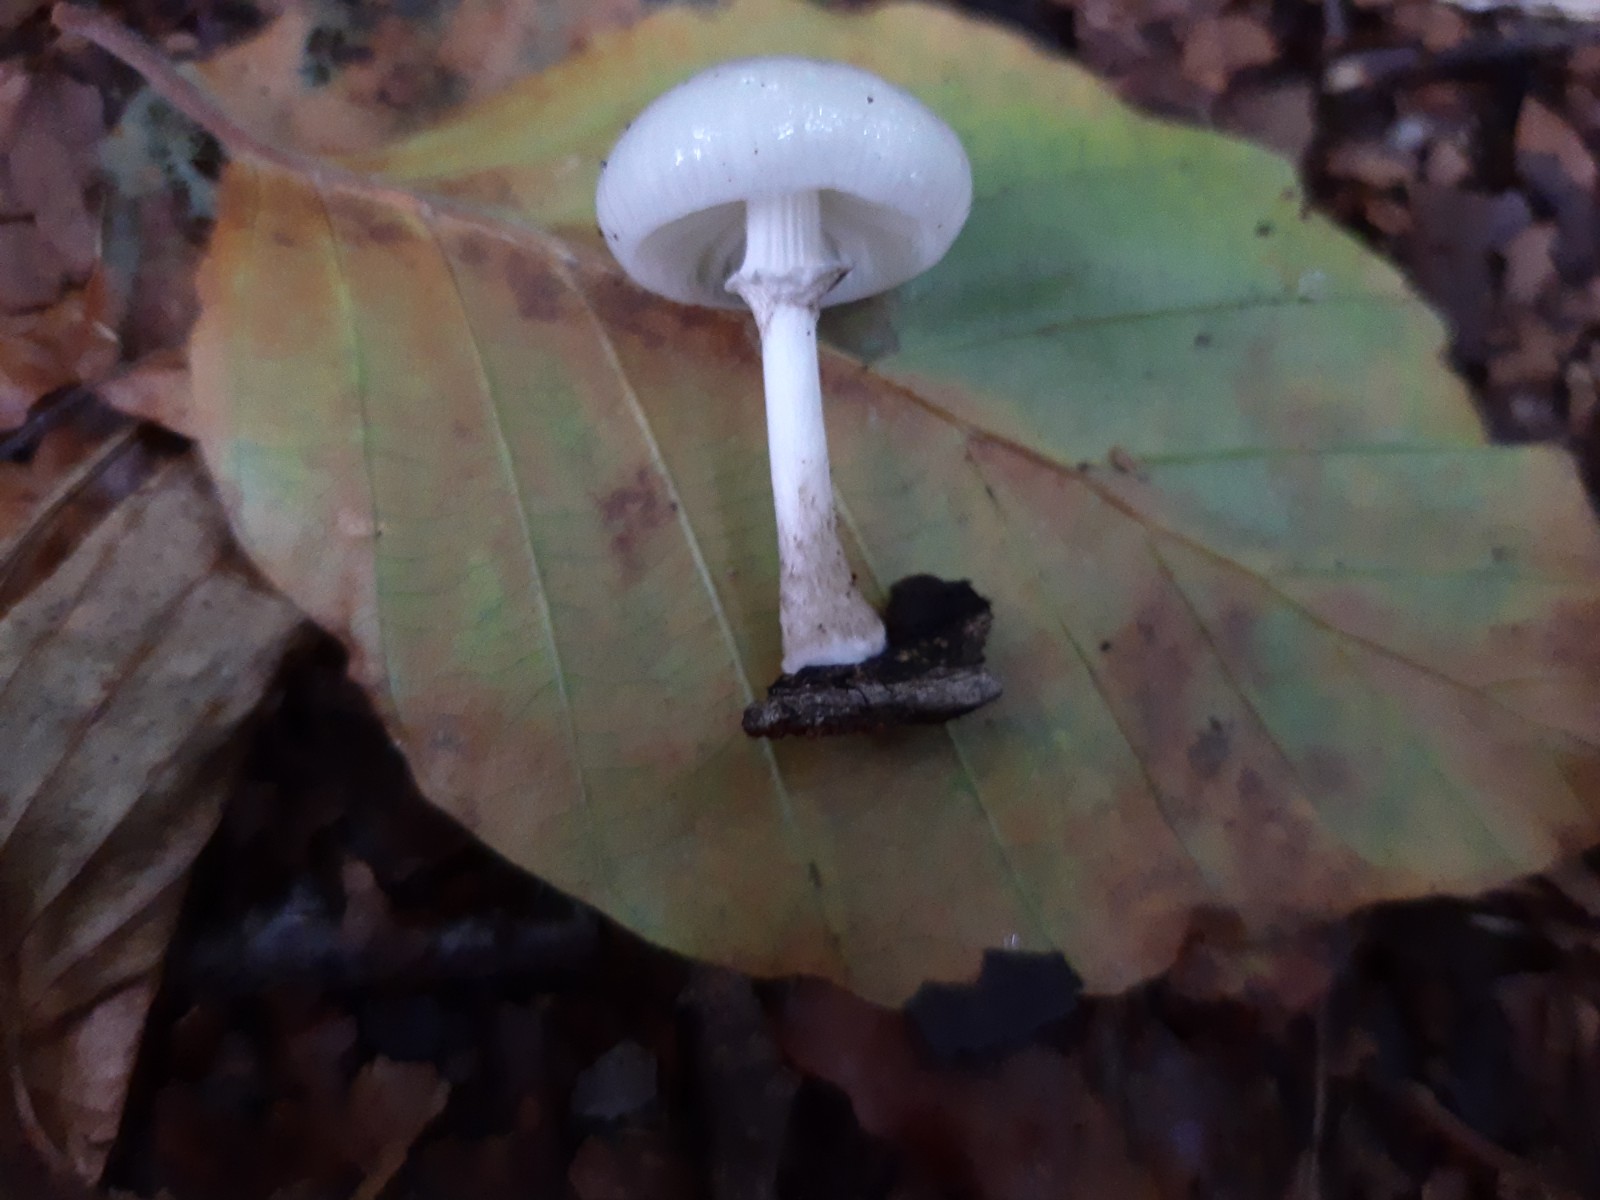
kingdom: Fungi
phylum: Basidiomycota
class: Agaricomycetes
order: Agaricales
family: Physalacriaceae
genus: Mucidula
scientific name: Mucidula mucida
